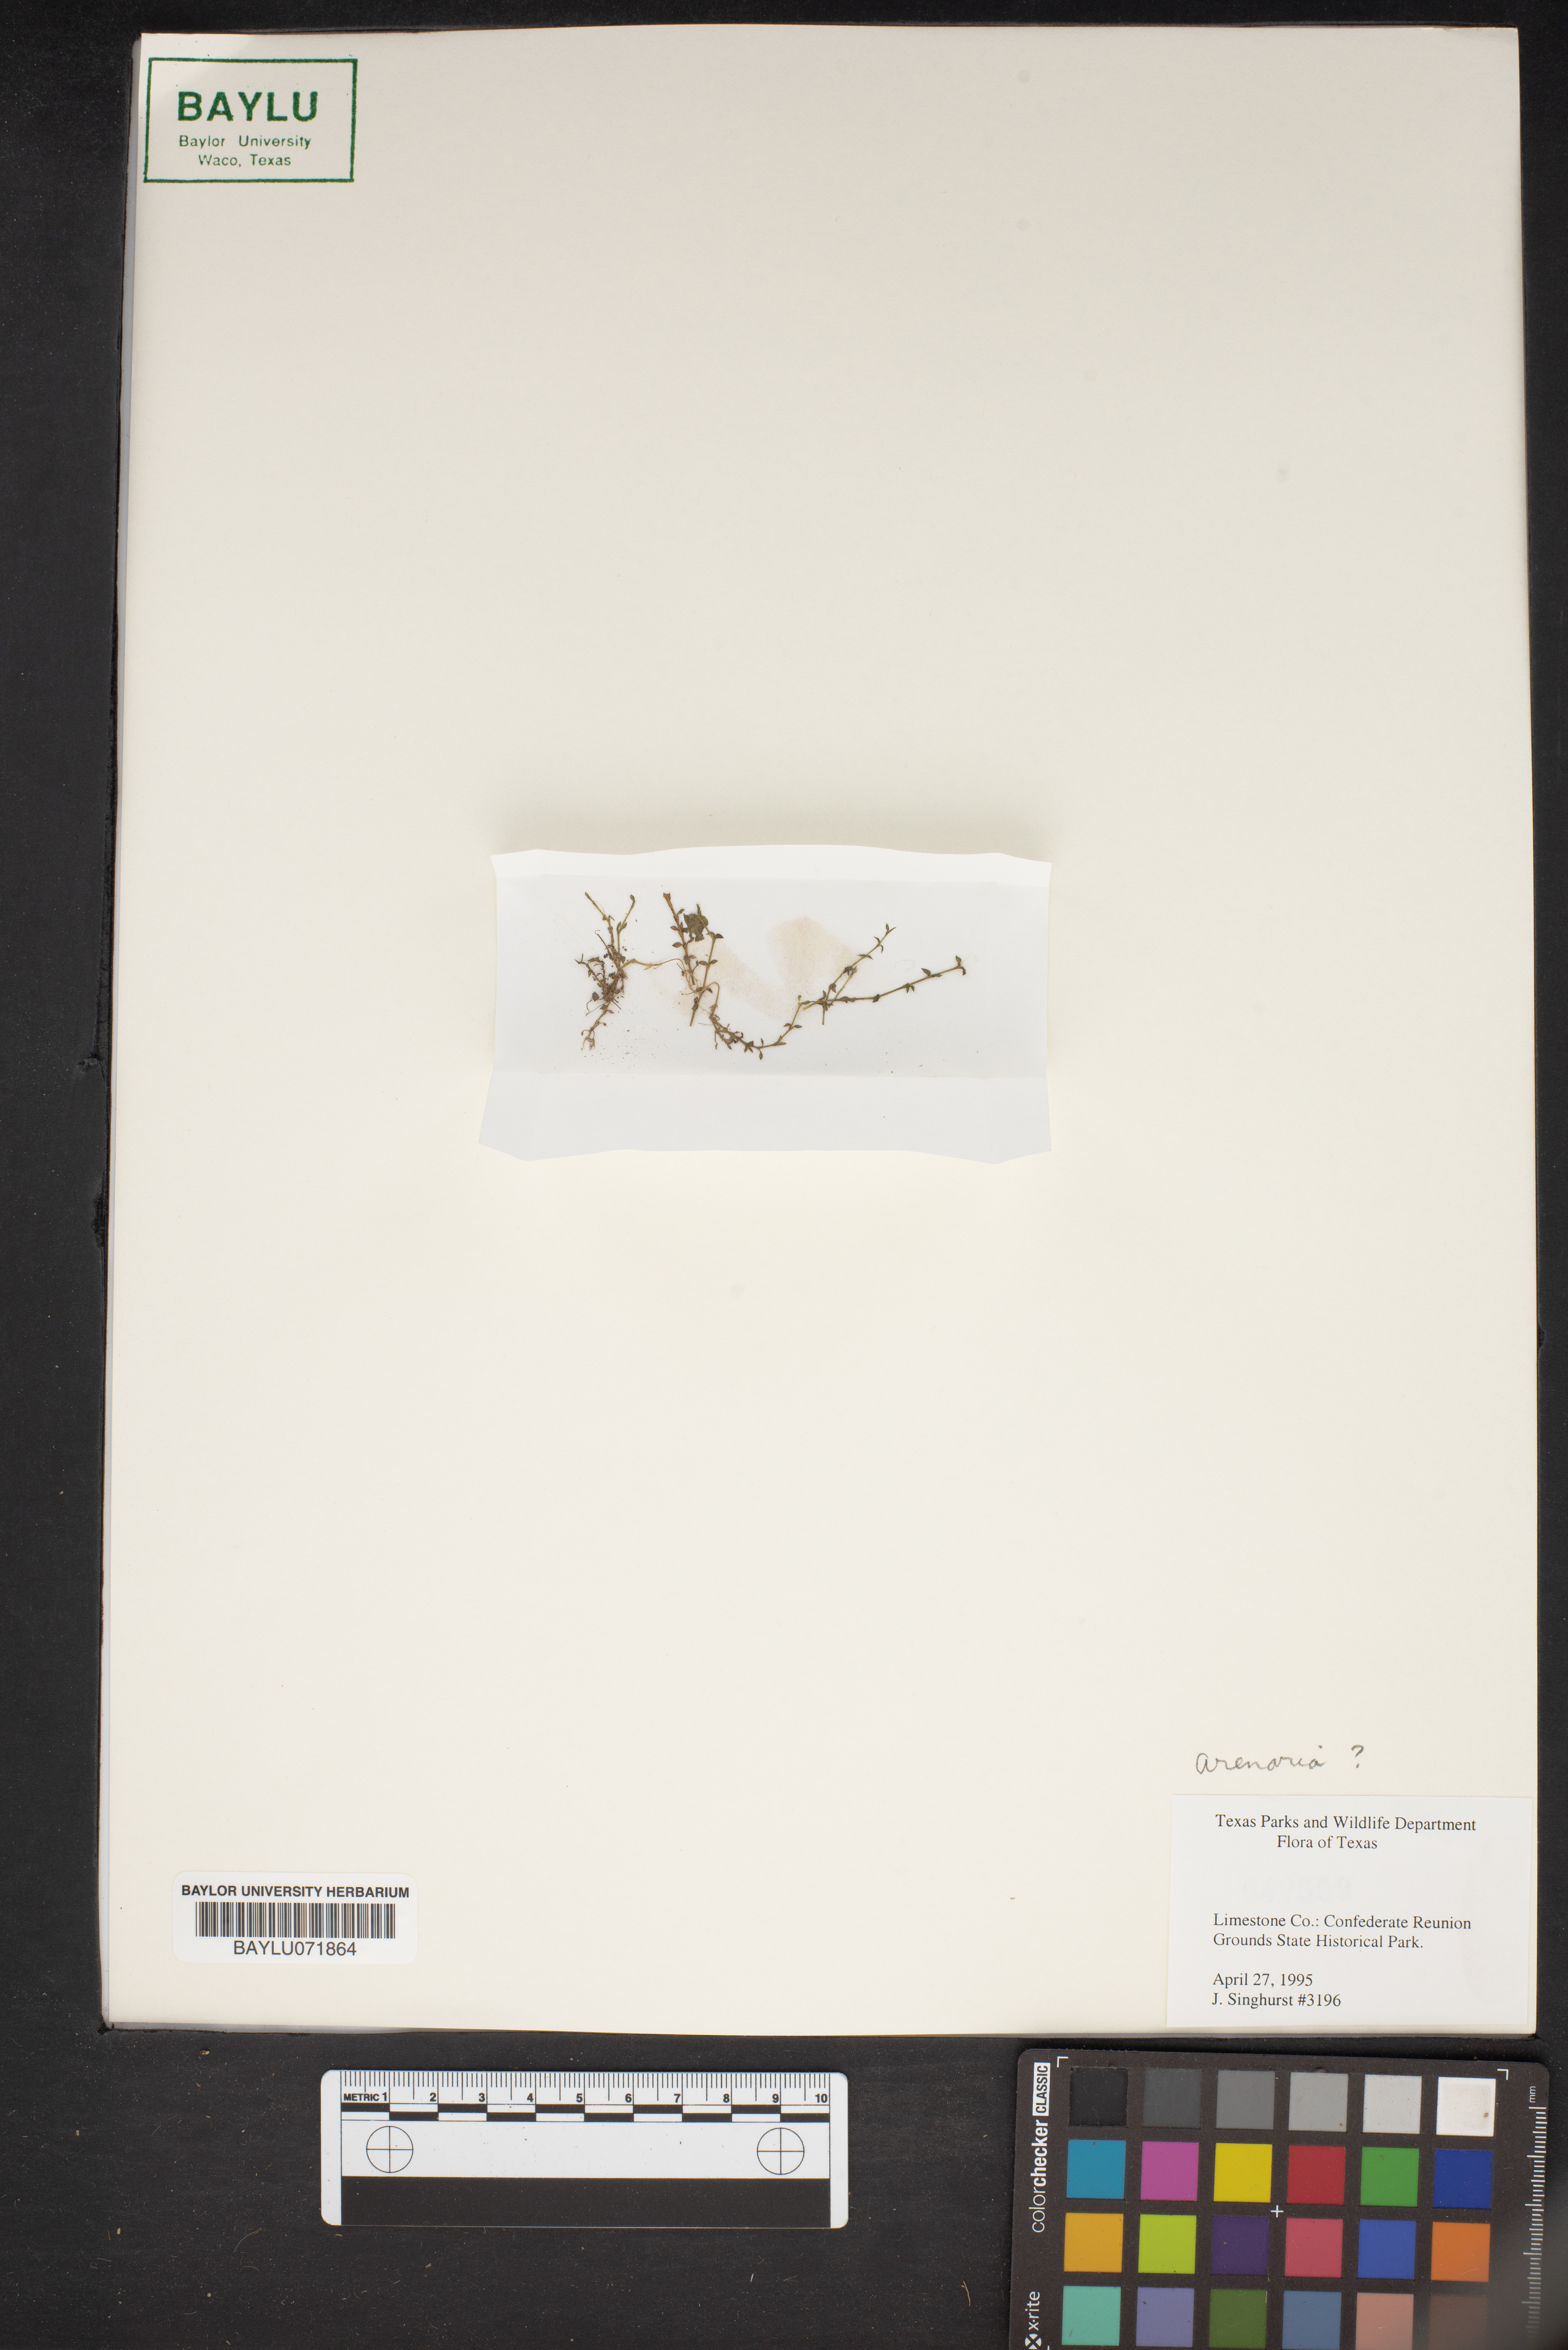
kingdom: Plantae
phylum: Tracheophyta
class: Magnoliopsida
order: Caryophyllales
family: Caryophyllaceae
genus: Arenaria
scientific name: Arenaria
